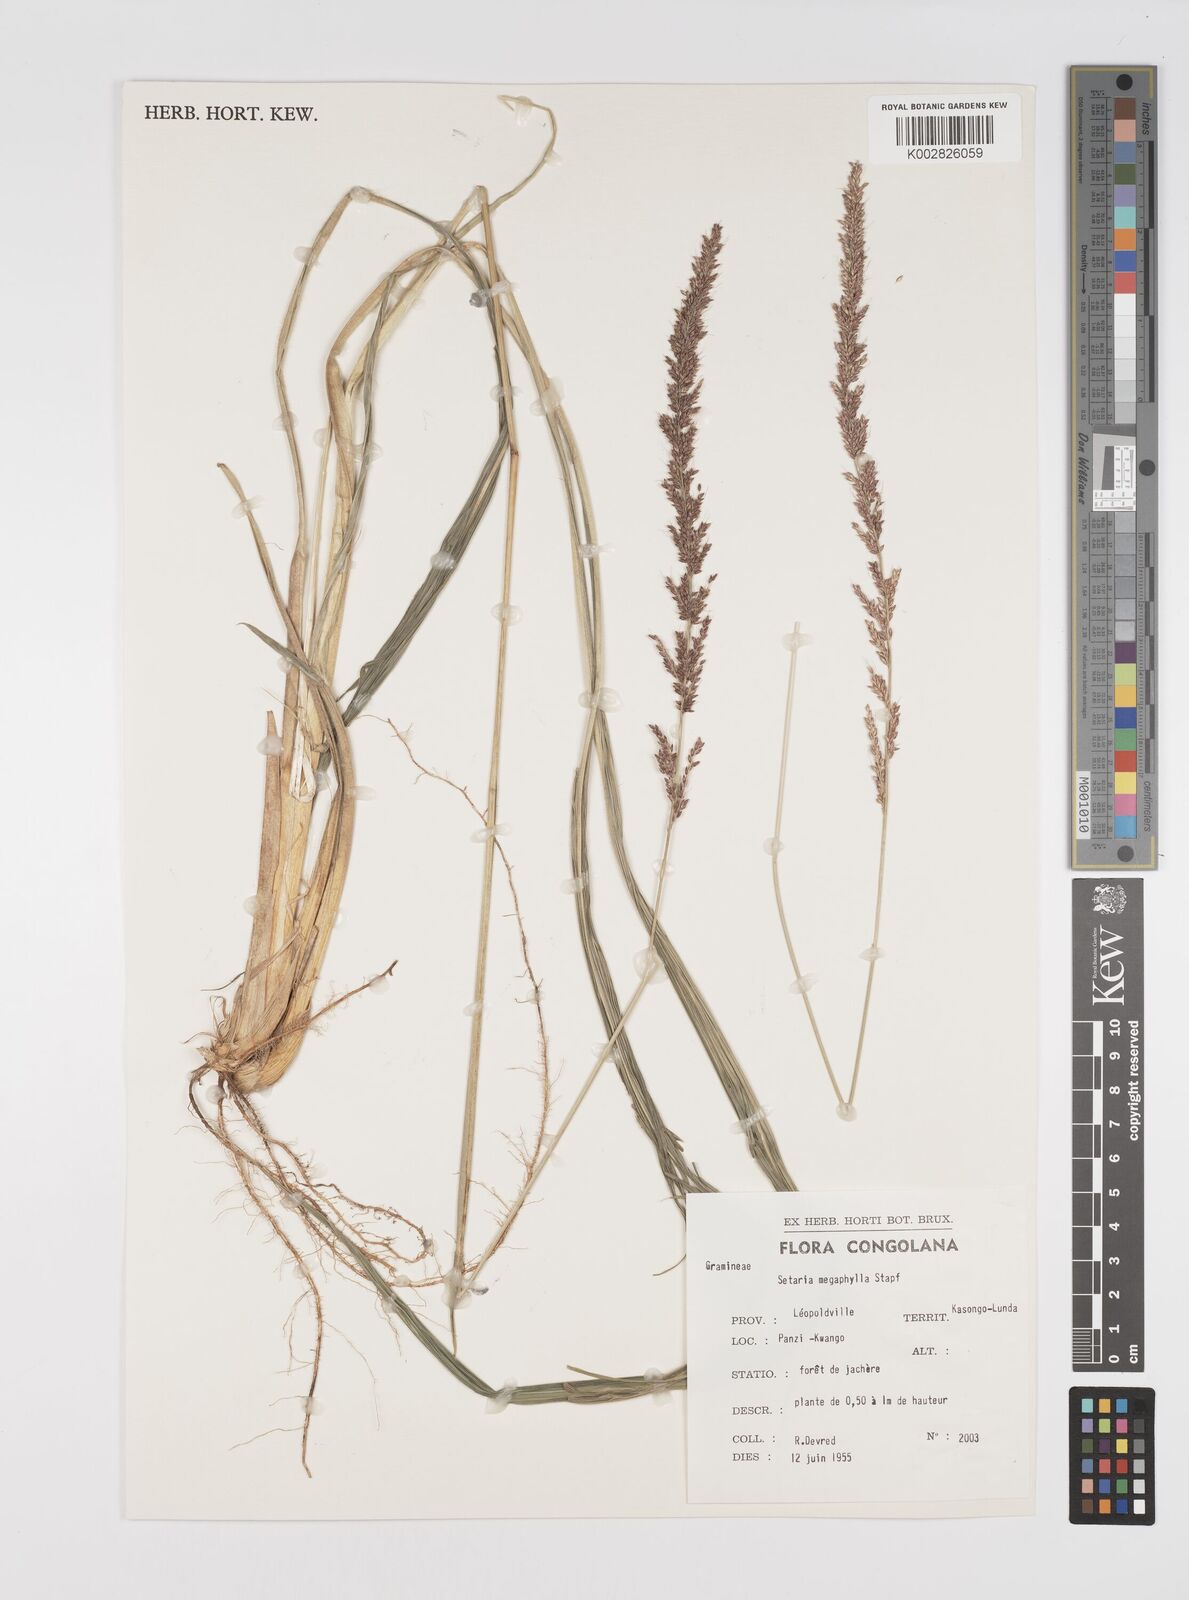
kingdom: Plantae
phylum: Tracheophyta
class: Liliopsida
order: Poales
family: Poaceae
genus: Setaria
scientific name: Setaria megaphylla
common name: Bigleaf bristlegrass
